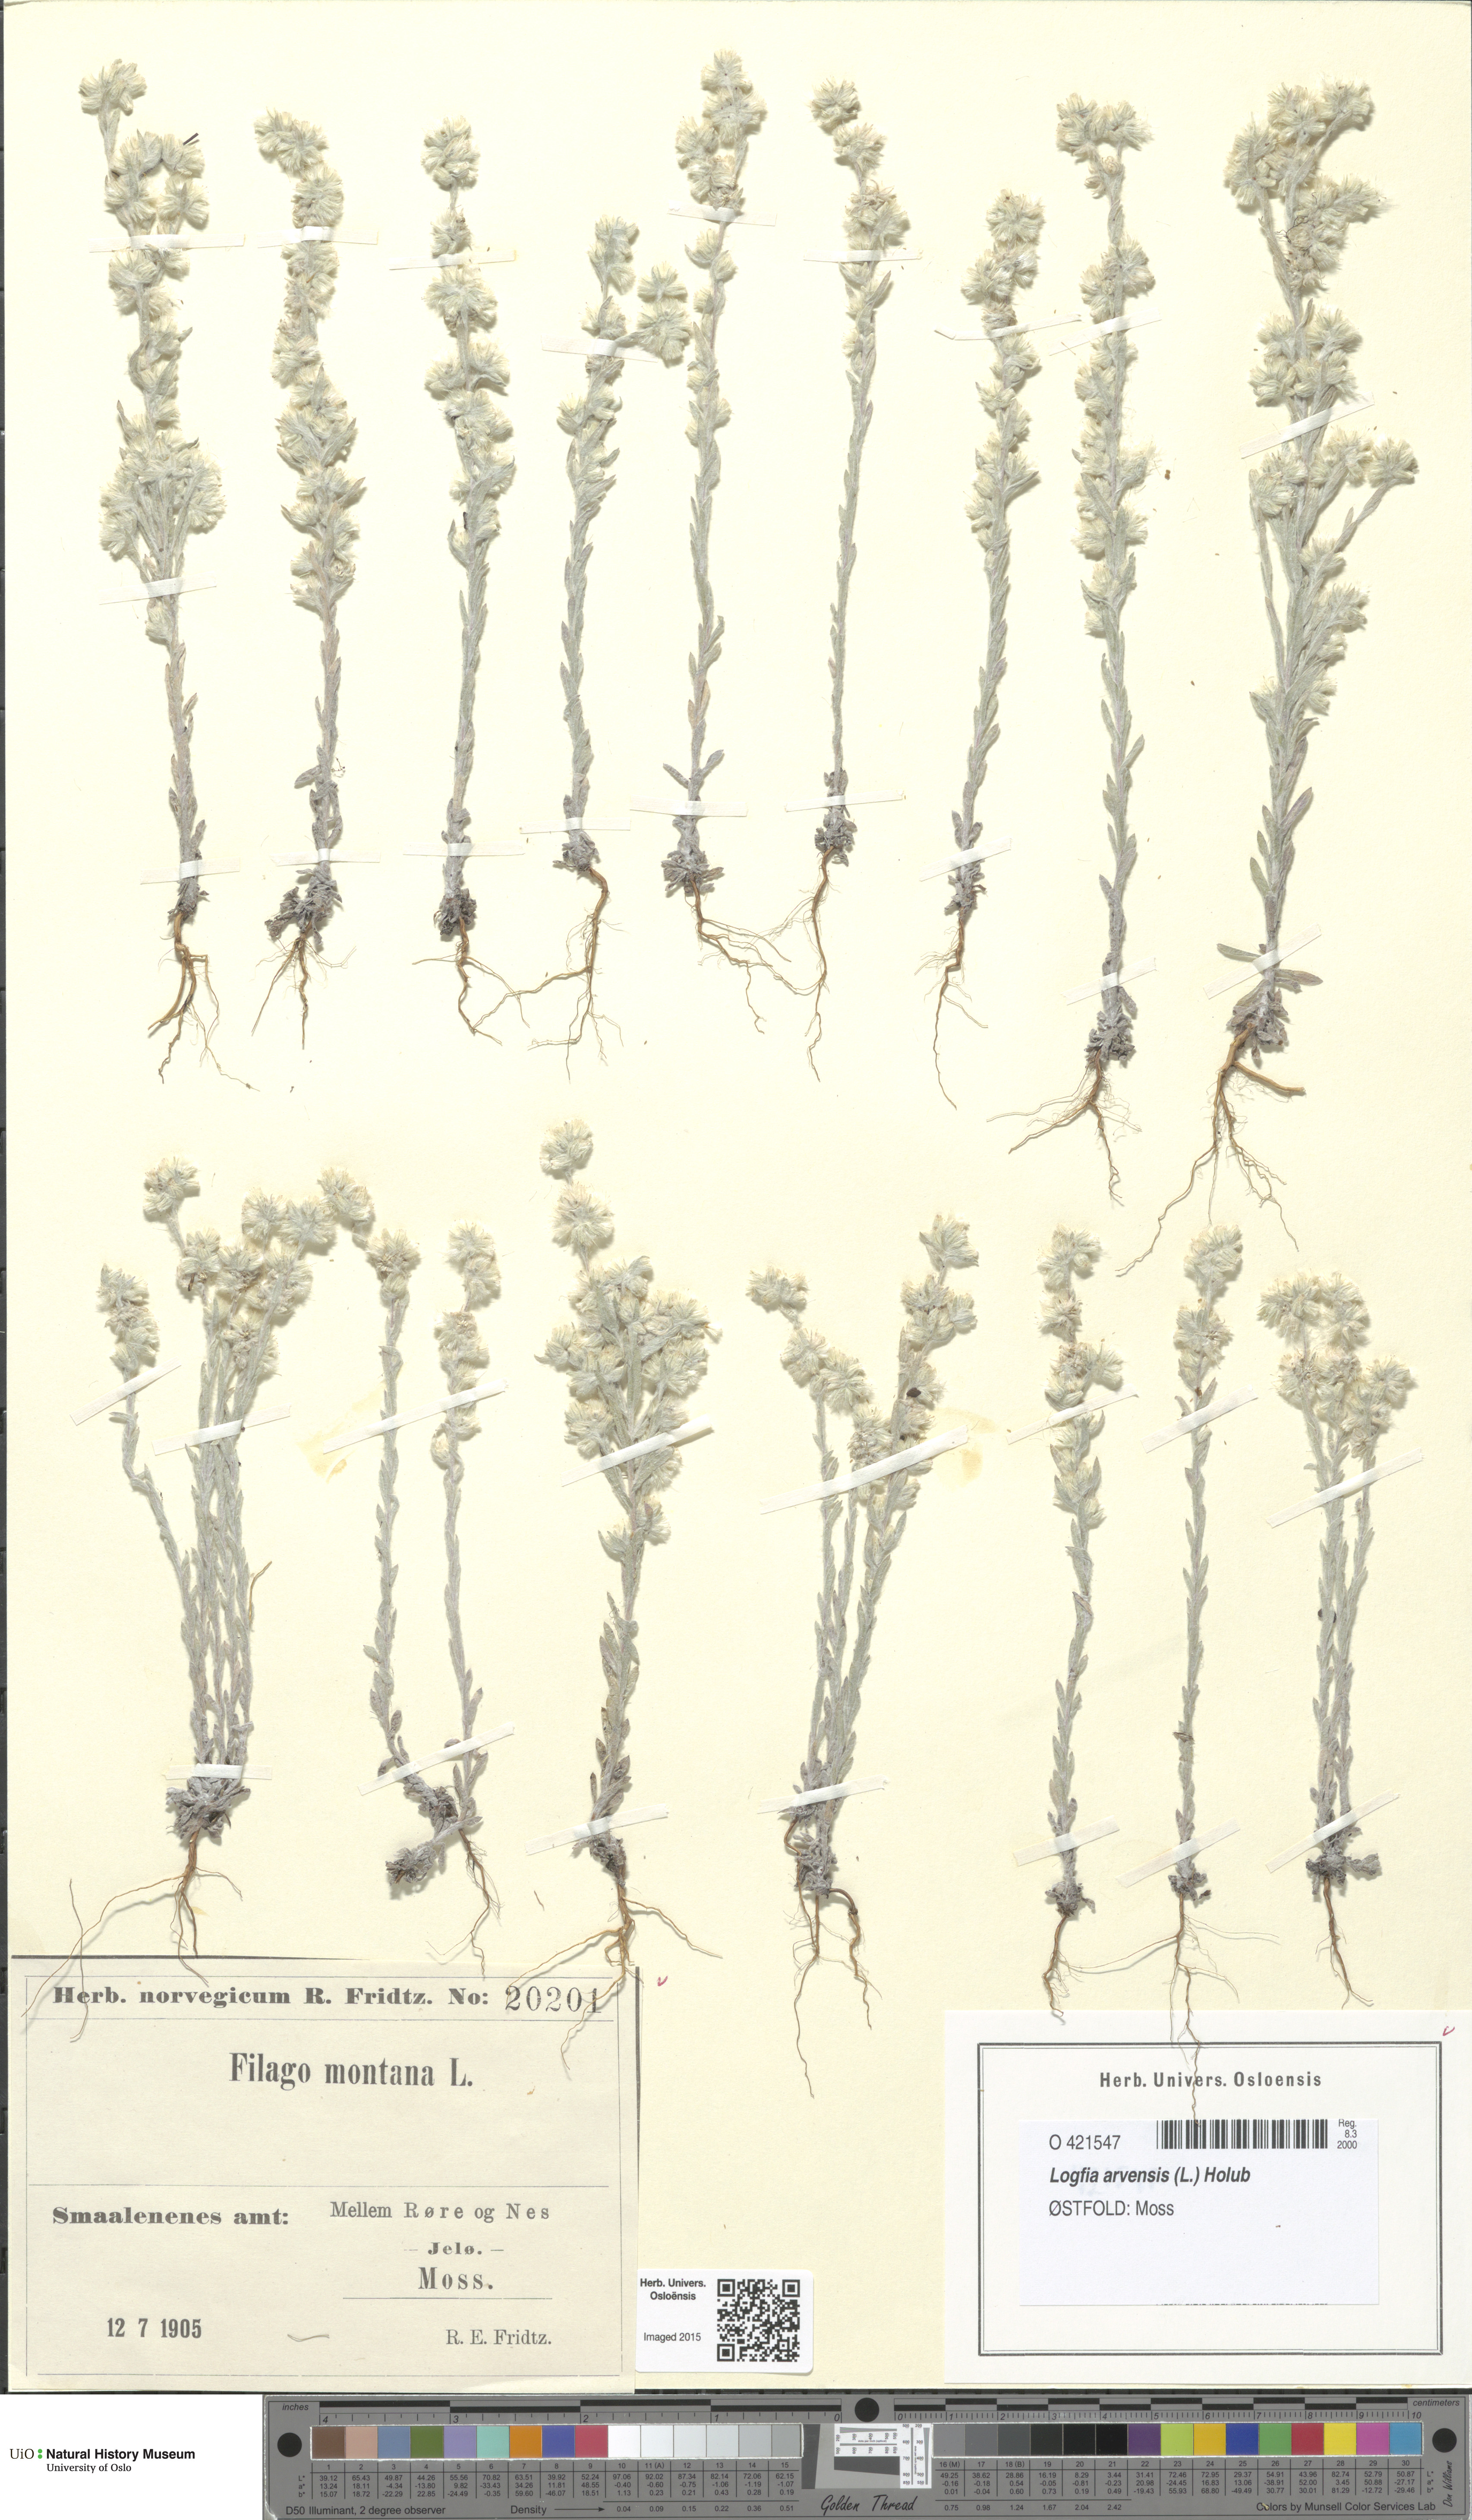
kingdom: Plantae
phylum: Tracheophyta
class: Magnoliopsida
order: Asterales
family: Asteraceae
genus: Filago
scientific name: Filago arvensis
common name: Field cudweed
